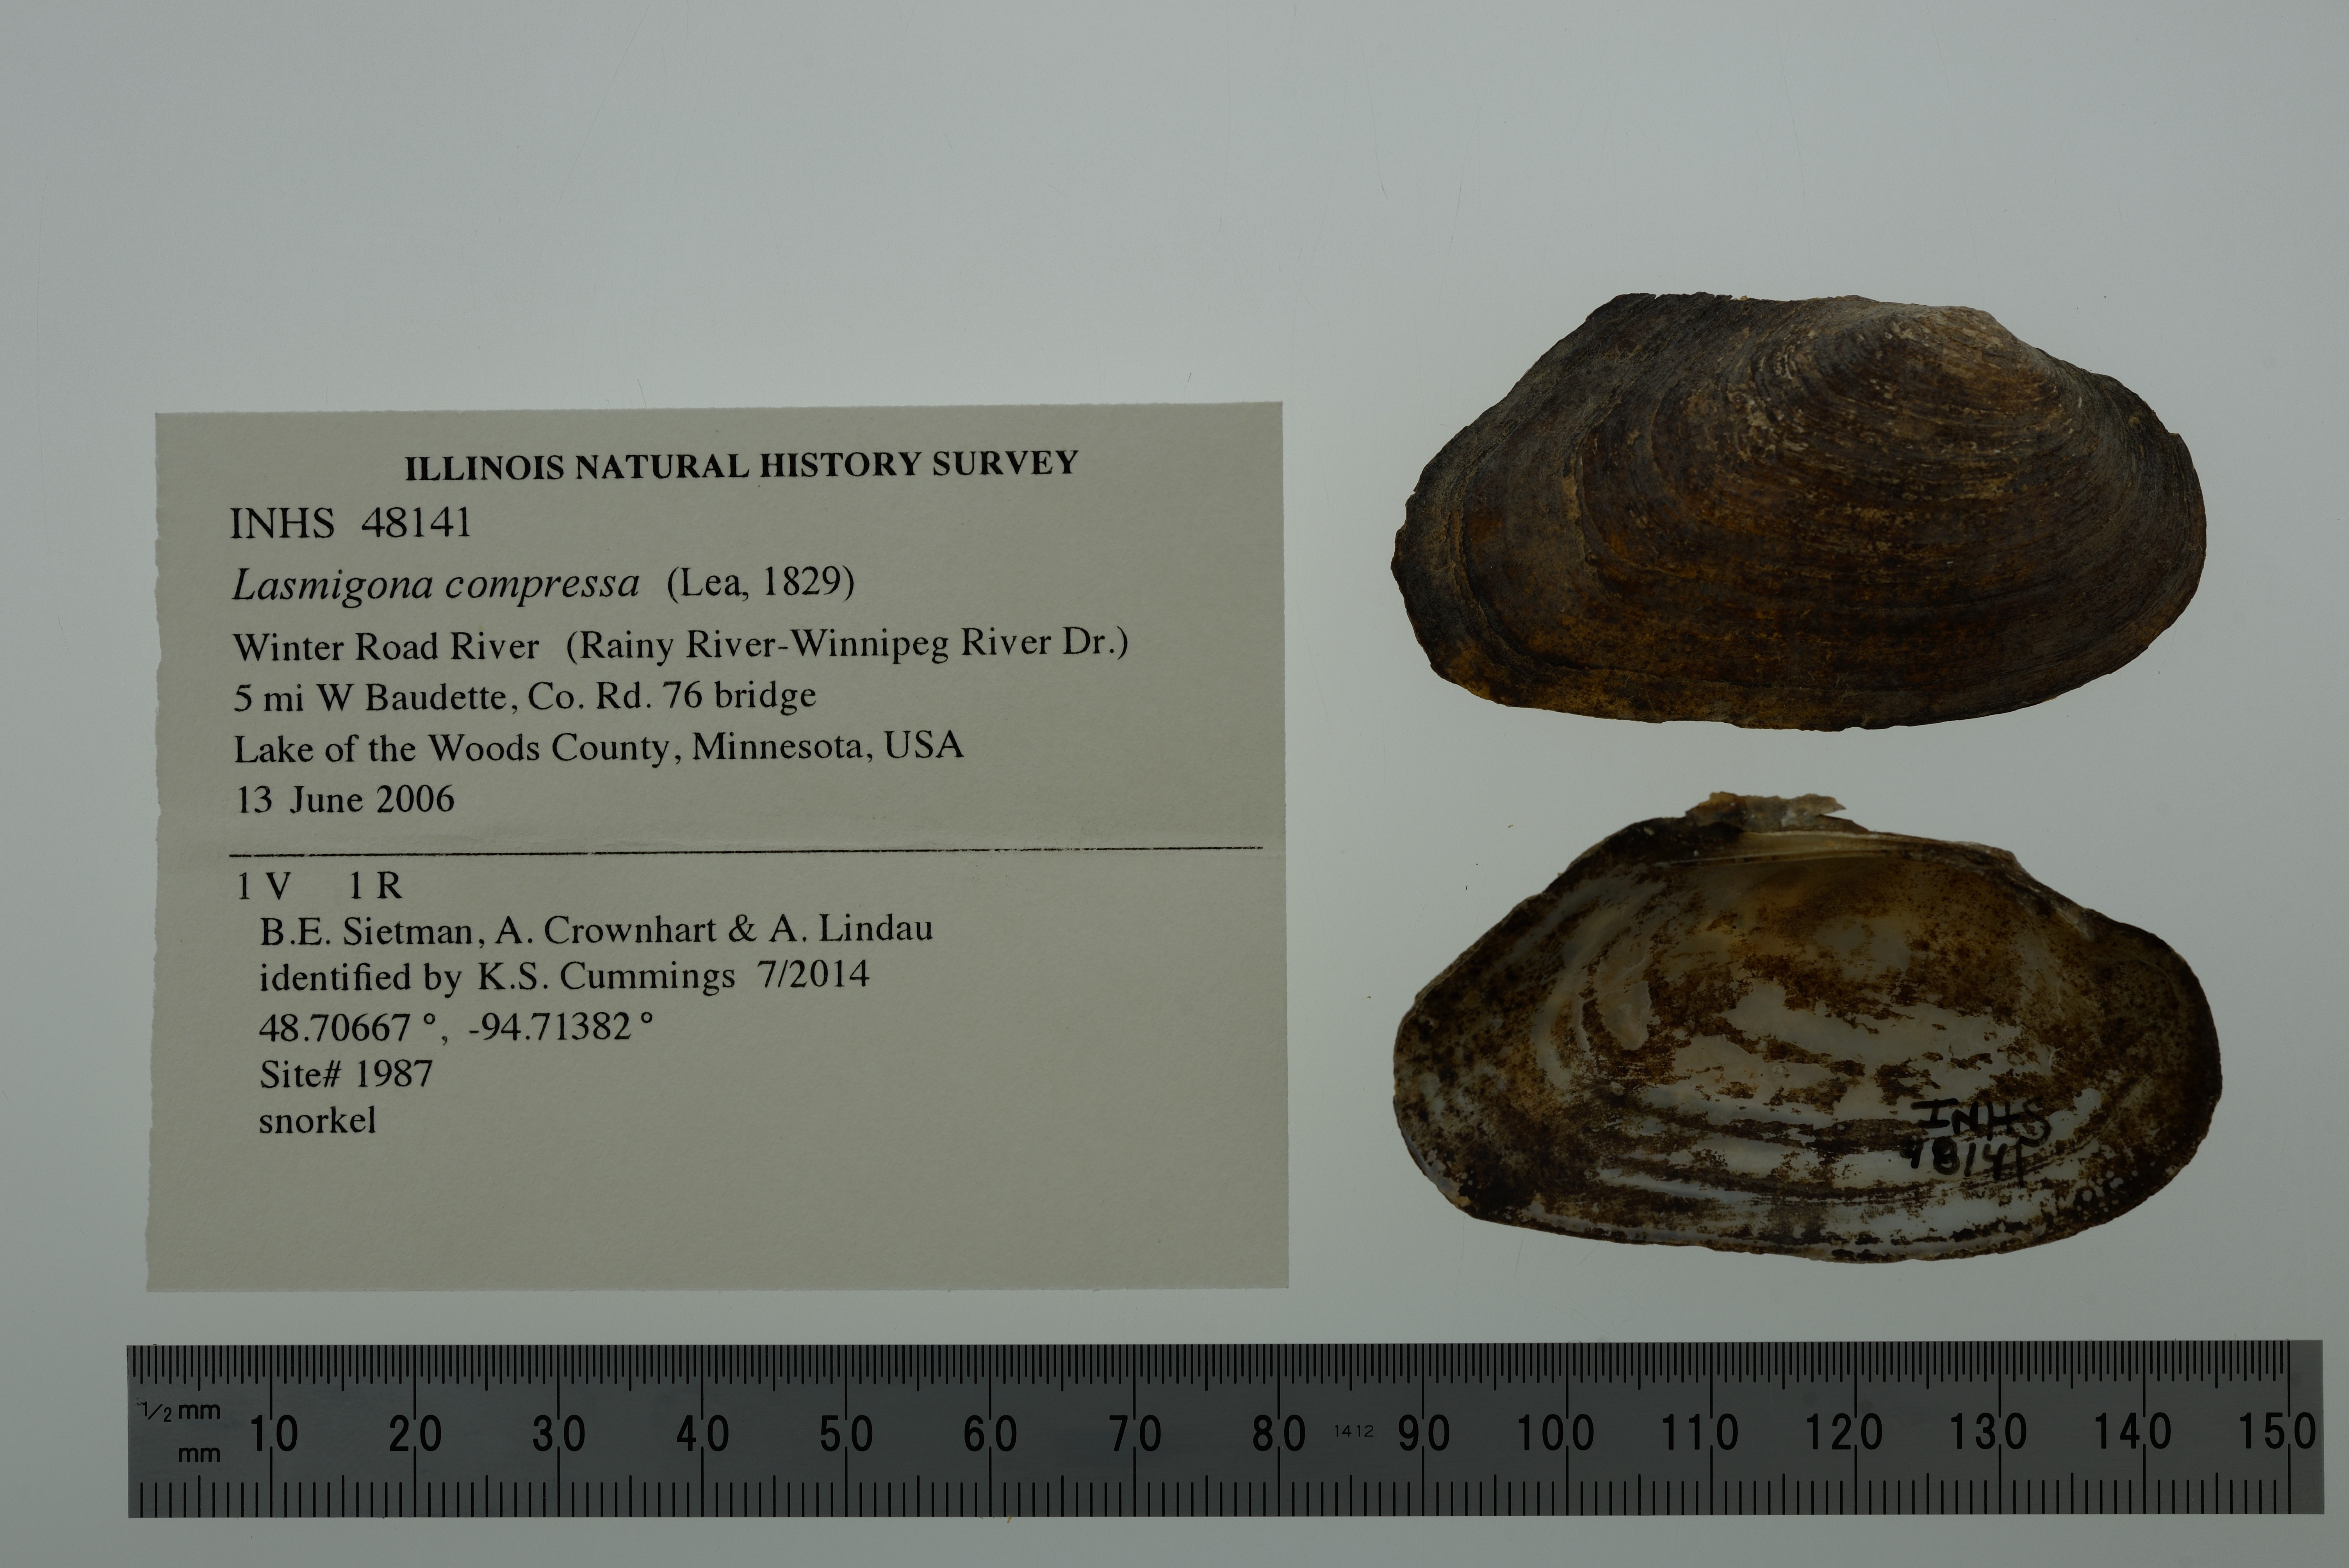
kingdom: Animalia
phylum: Mollusca
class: Bivalvia
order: Unionida
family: Unionidae
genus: Lasmigona
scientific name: Lasmigona compressa
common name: Creek heelsplitter
